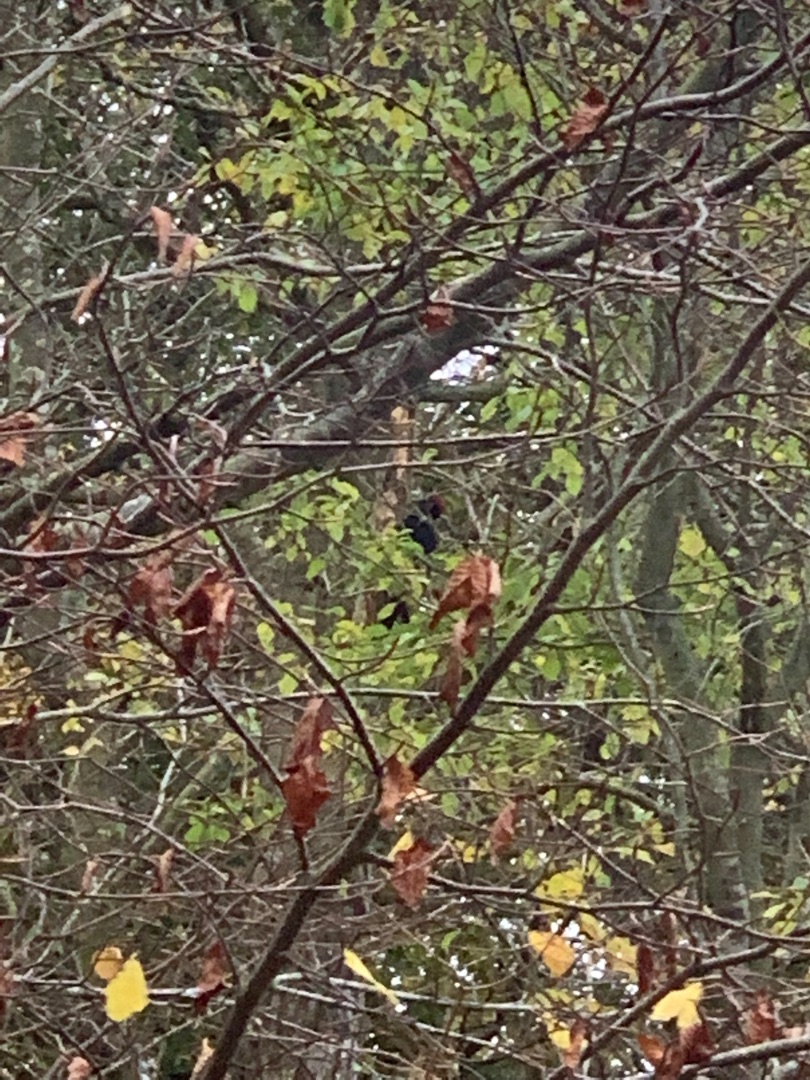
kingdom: Animalia
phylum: Chordata
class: Aves
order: Piciformes
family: Picidae
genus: Dryocopus
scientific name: Dryocopus martius
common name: Sortspætte
